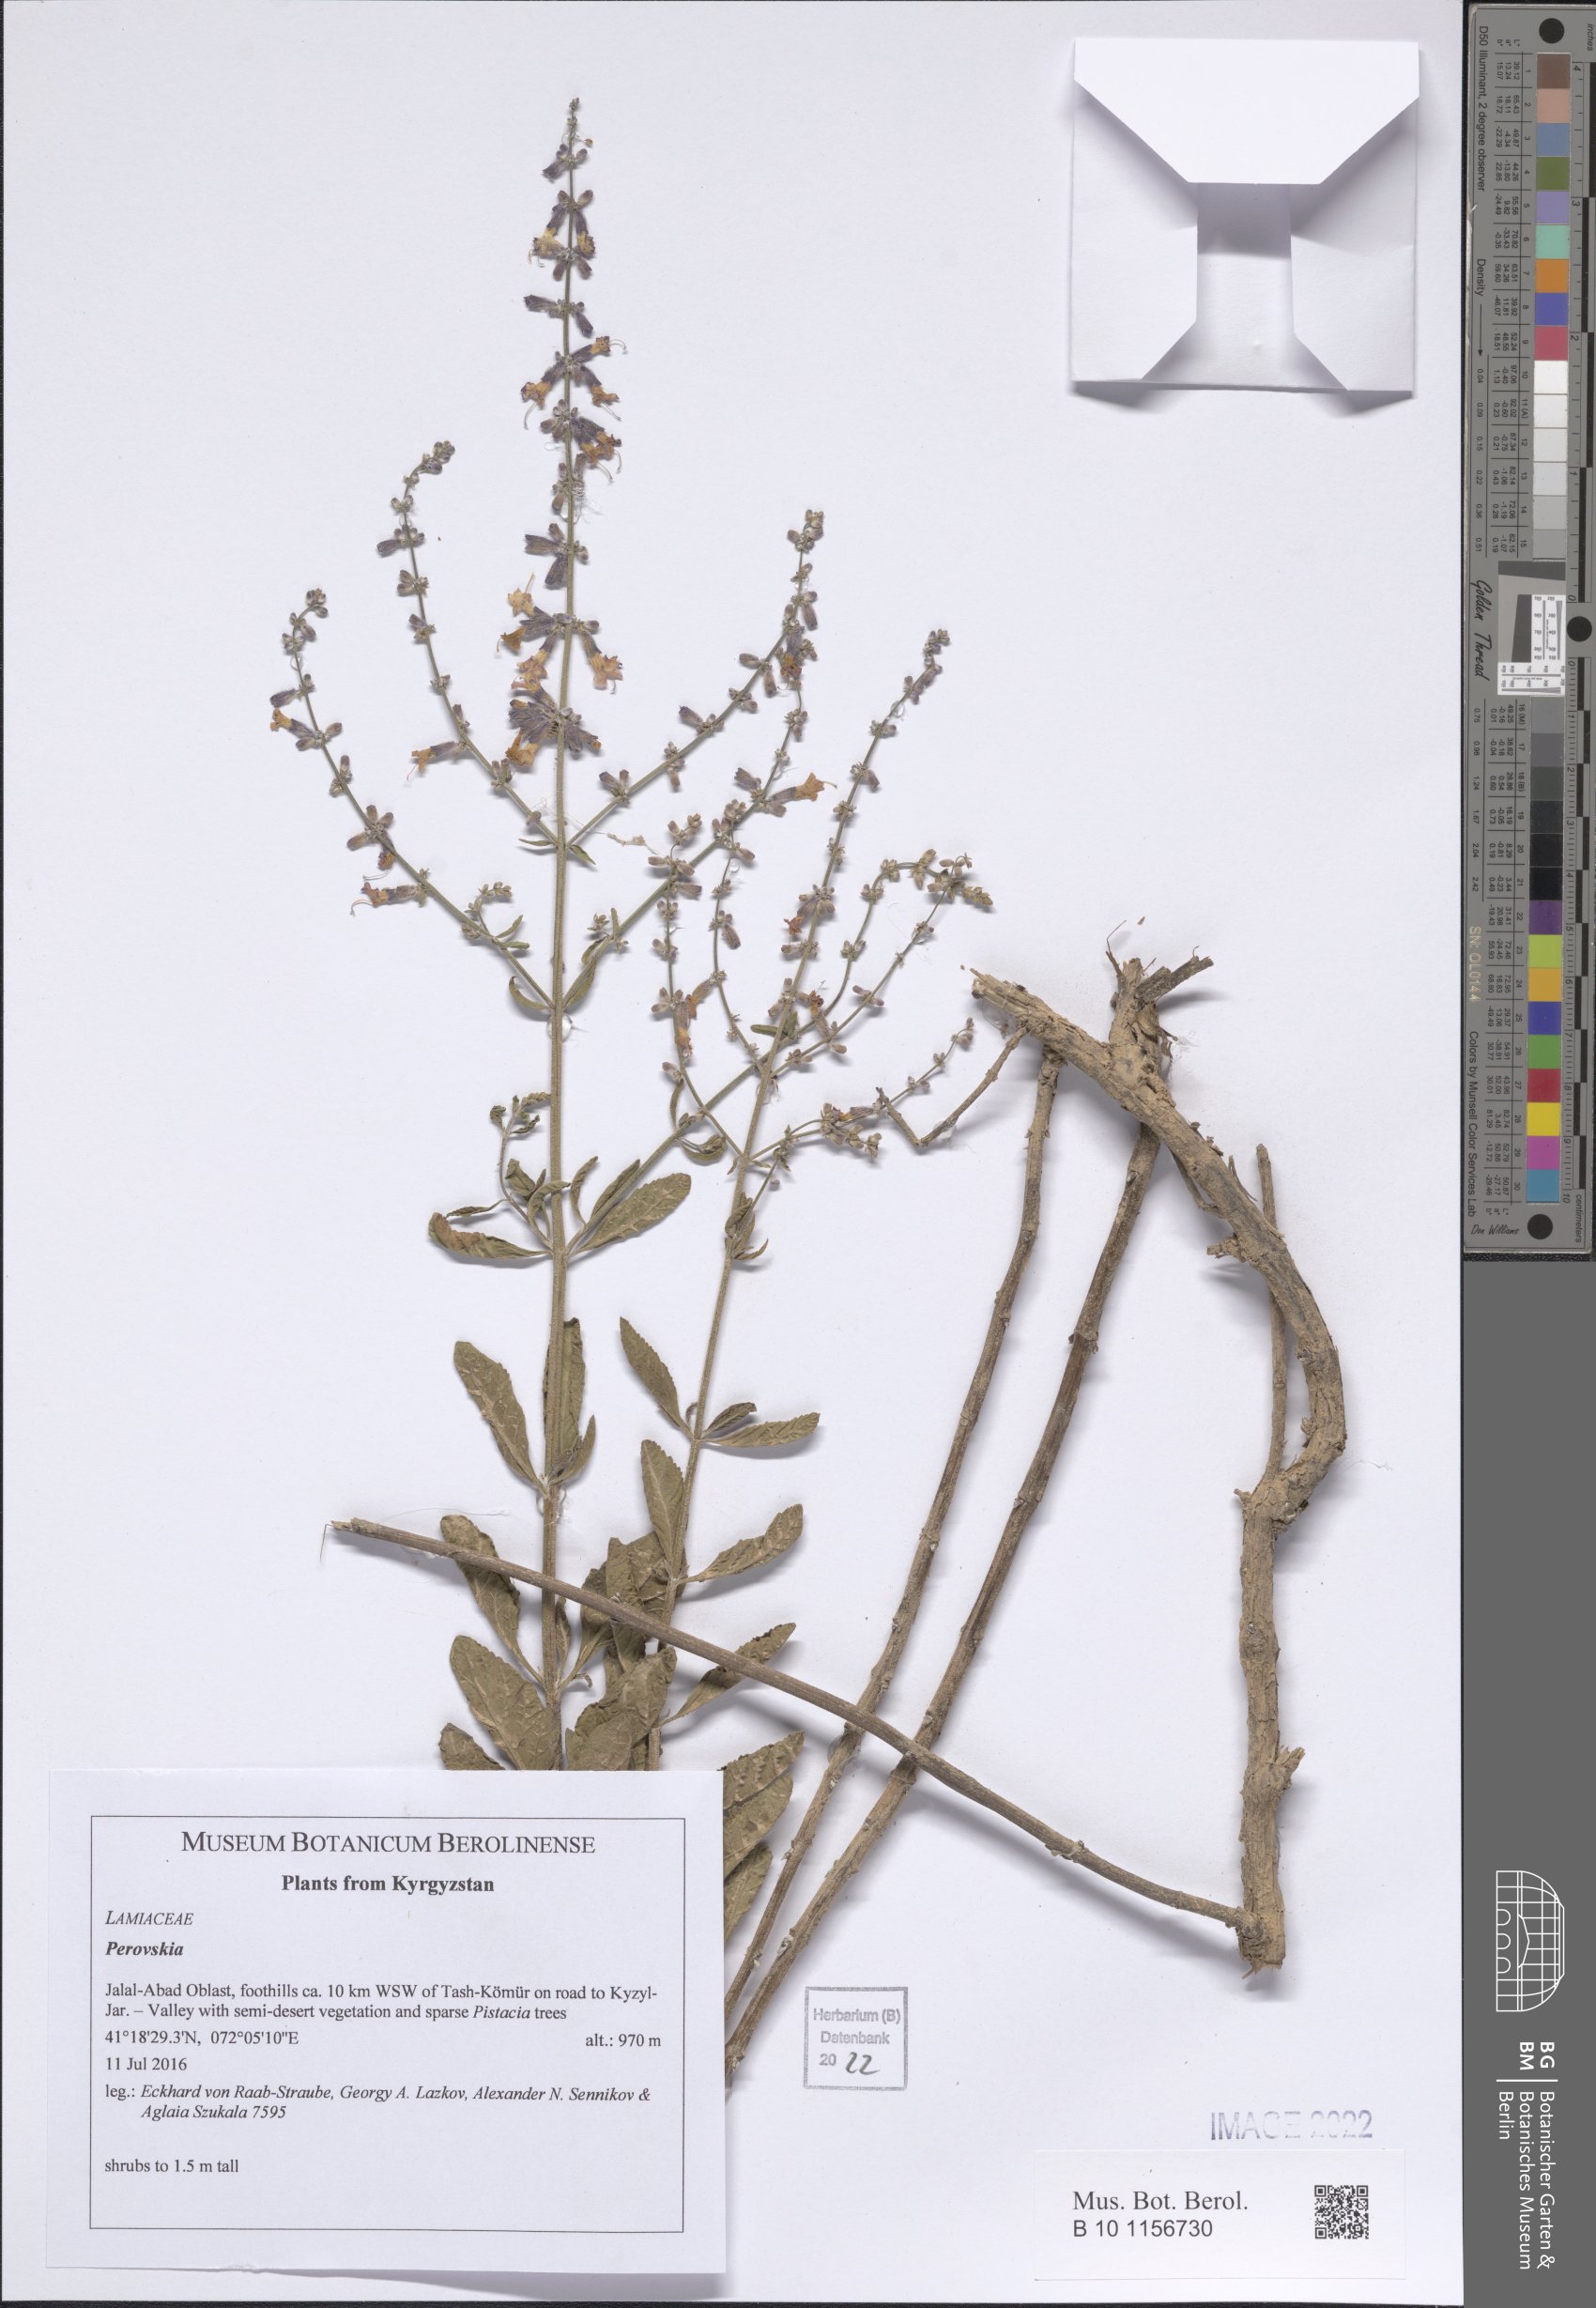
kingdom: Plantae
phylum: Tracheophyta
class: Magnoliopsida
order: Lamiales
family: Lamiaceae
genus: Salvia
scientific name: Salvia
